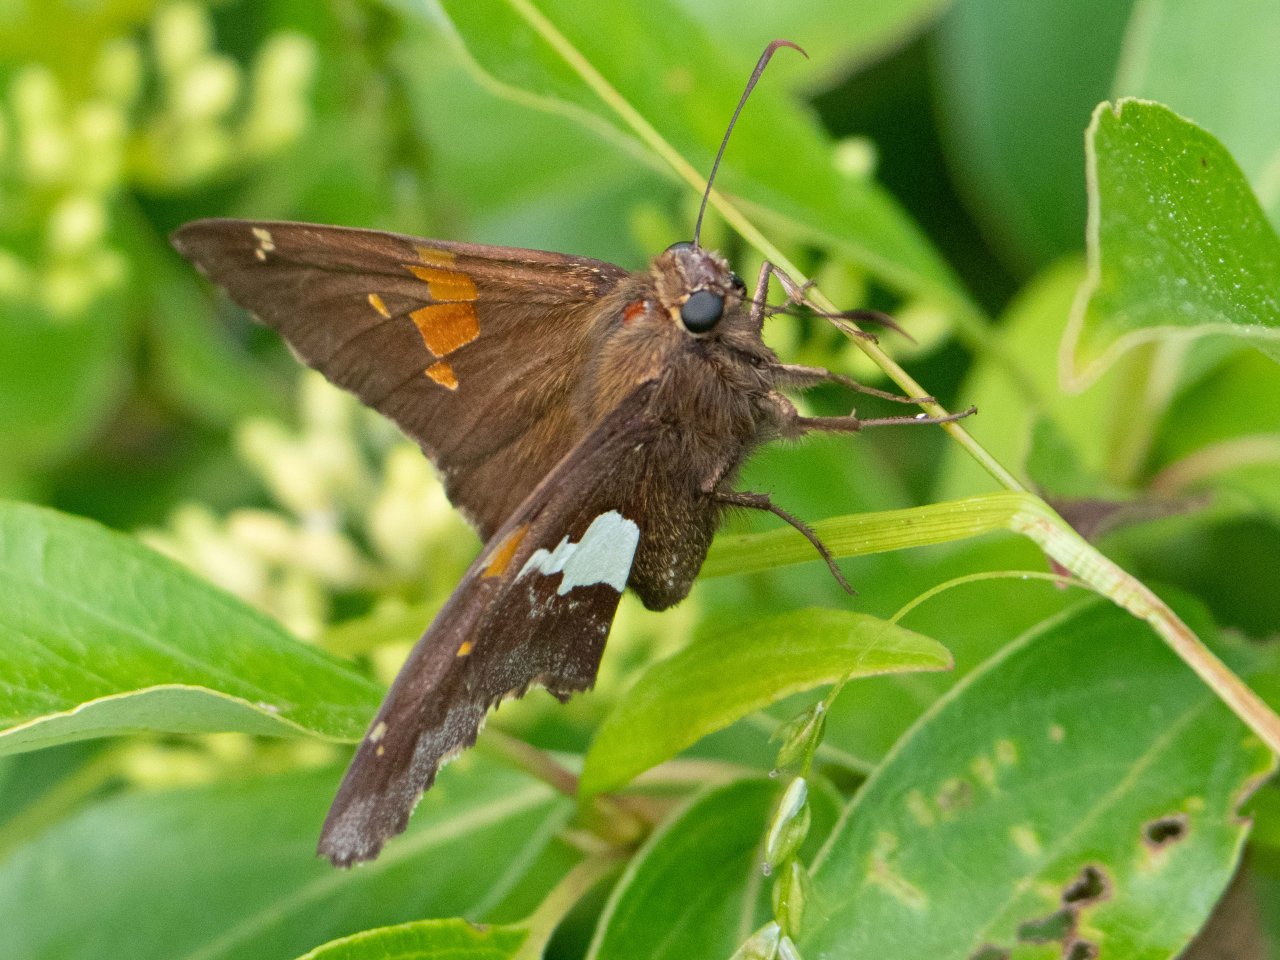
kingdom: Animalia
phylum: Arthropoda
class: Insecta
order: Lepidoptera
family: Hesperiidae
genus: Epargyreus
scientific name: Epargyreus clarus
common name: Silver-spotted Skipper
